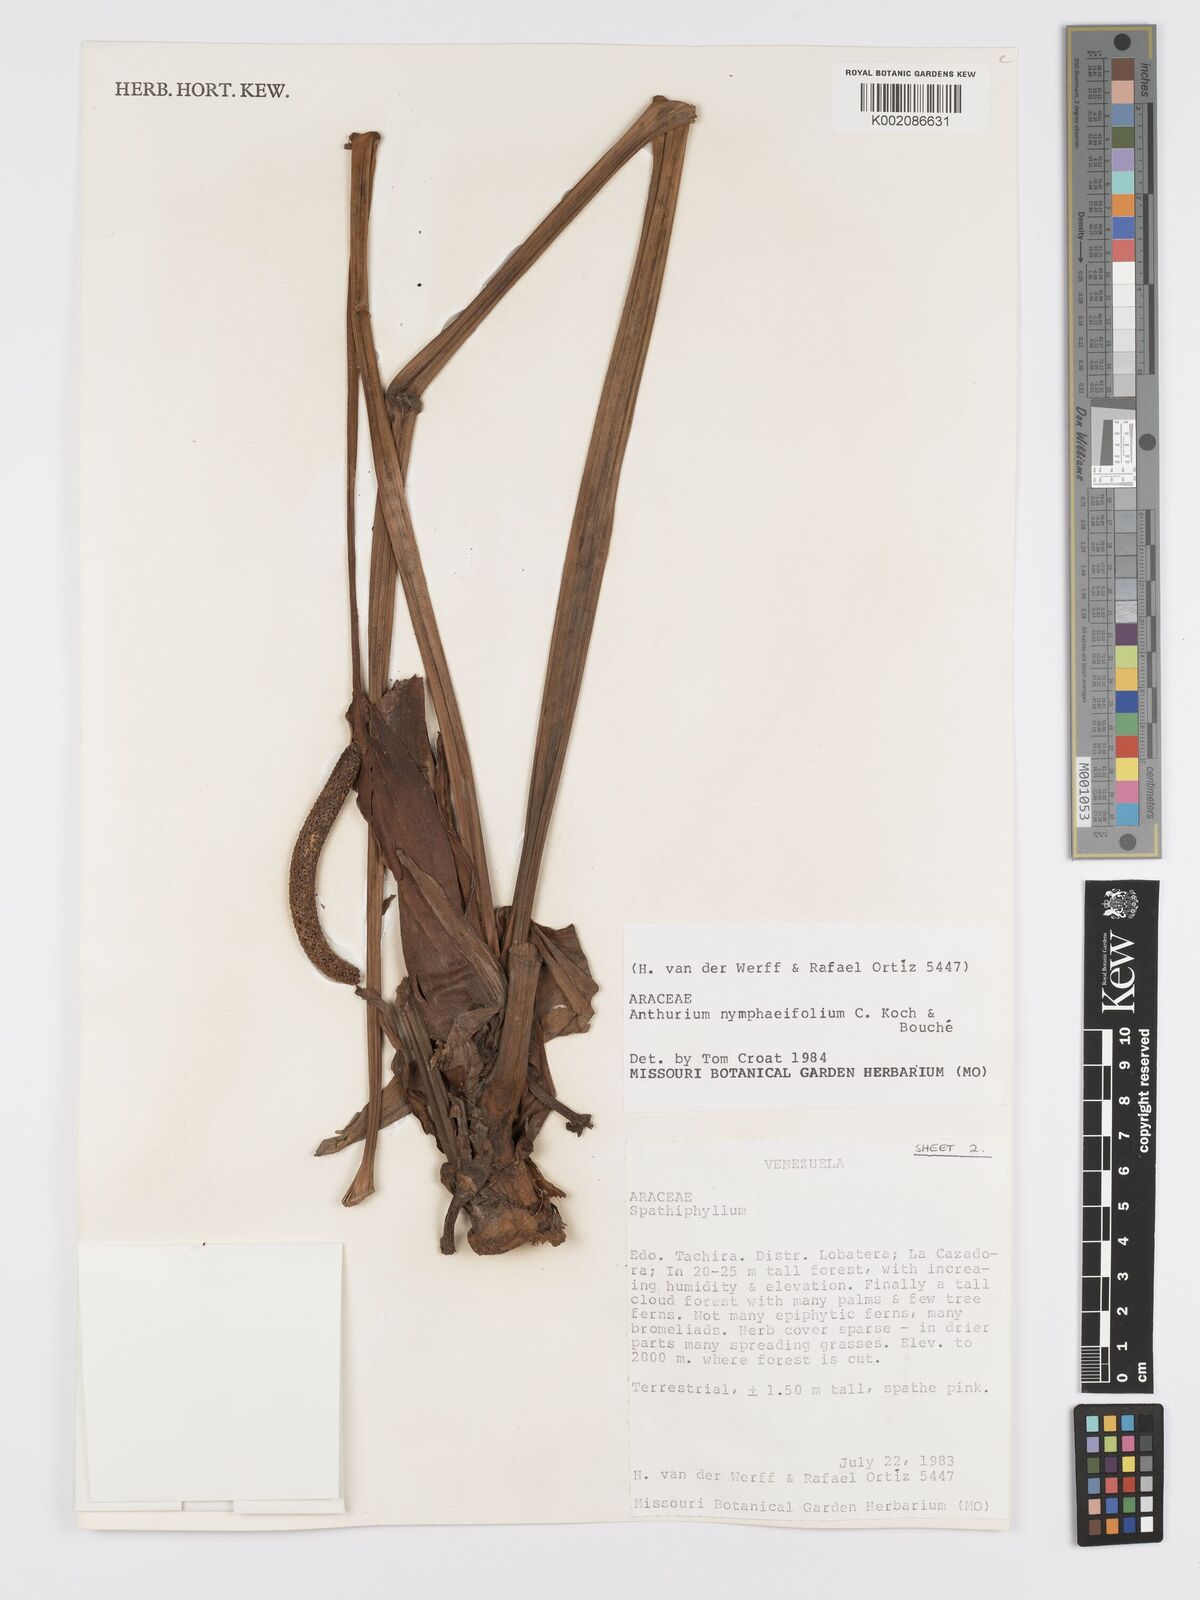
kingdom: Plantae
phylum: Tracheophyta
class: Liliopsida
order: Alismatales
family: Araceae
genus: Anthurium
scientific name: Anthurium nymphaeifolium
